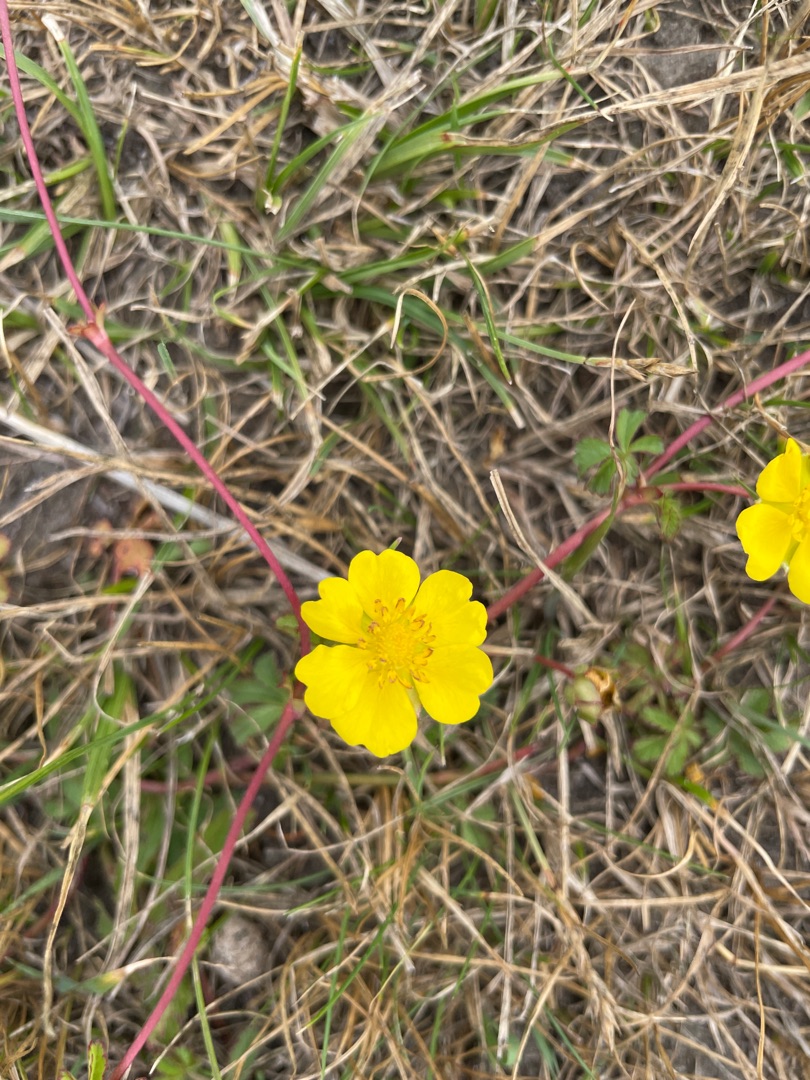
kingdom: Plantae
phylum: Tracheophyta
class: Magnoliopsida
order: Rosales
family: Rosaceae
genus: Potentilla
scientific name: Potentilla reptans
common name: Krybende potentil
